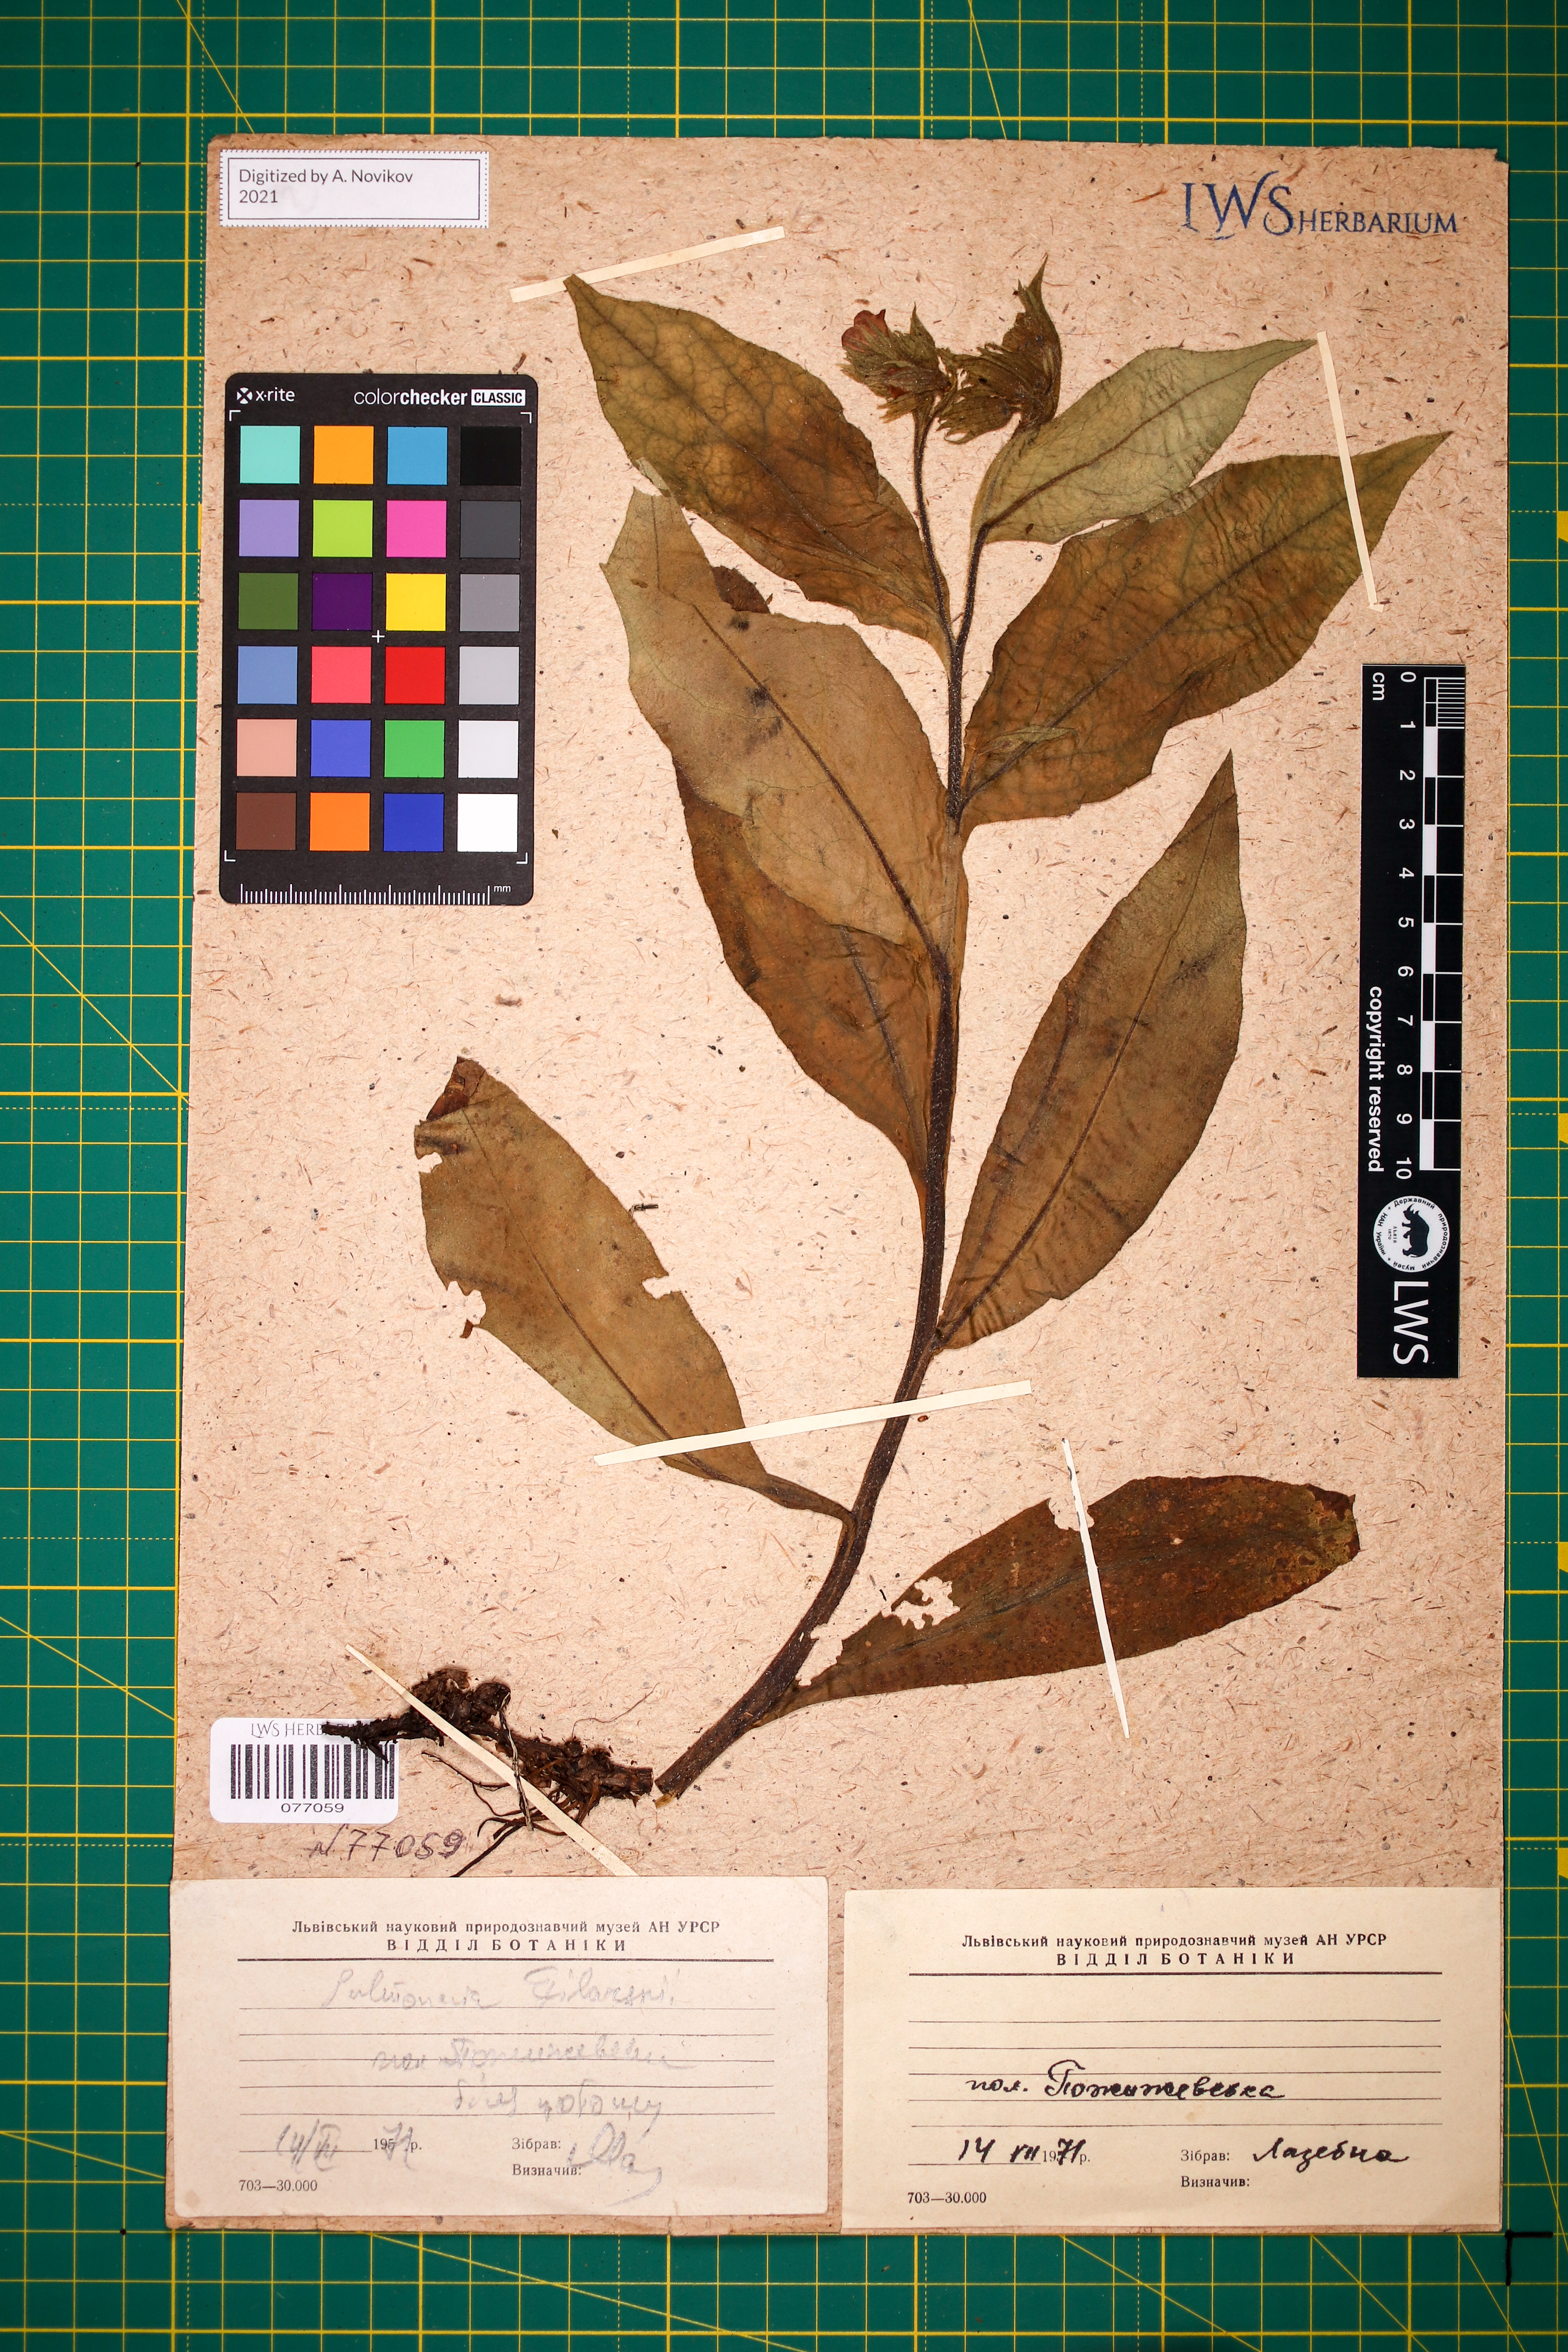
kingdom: Plantae
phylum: Tracheophyta
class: Magnoliopsida
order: Boraginales
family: Boraginaceae
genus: Pulmonaria
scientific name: Pulmonaria filarszkyana
